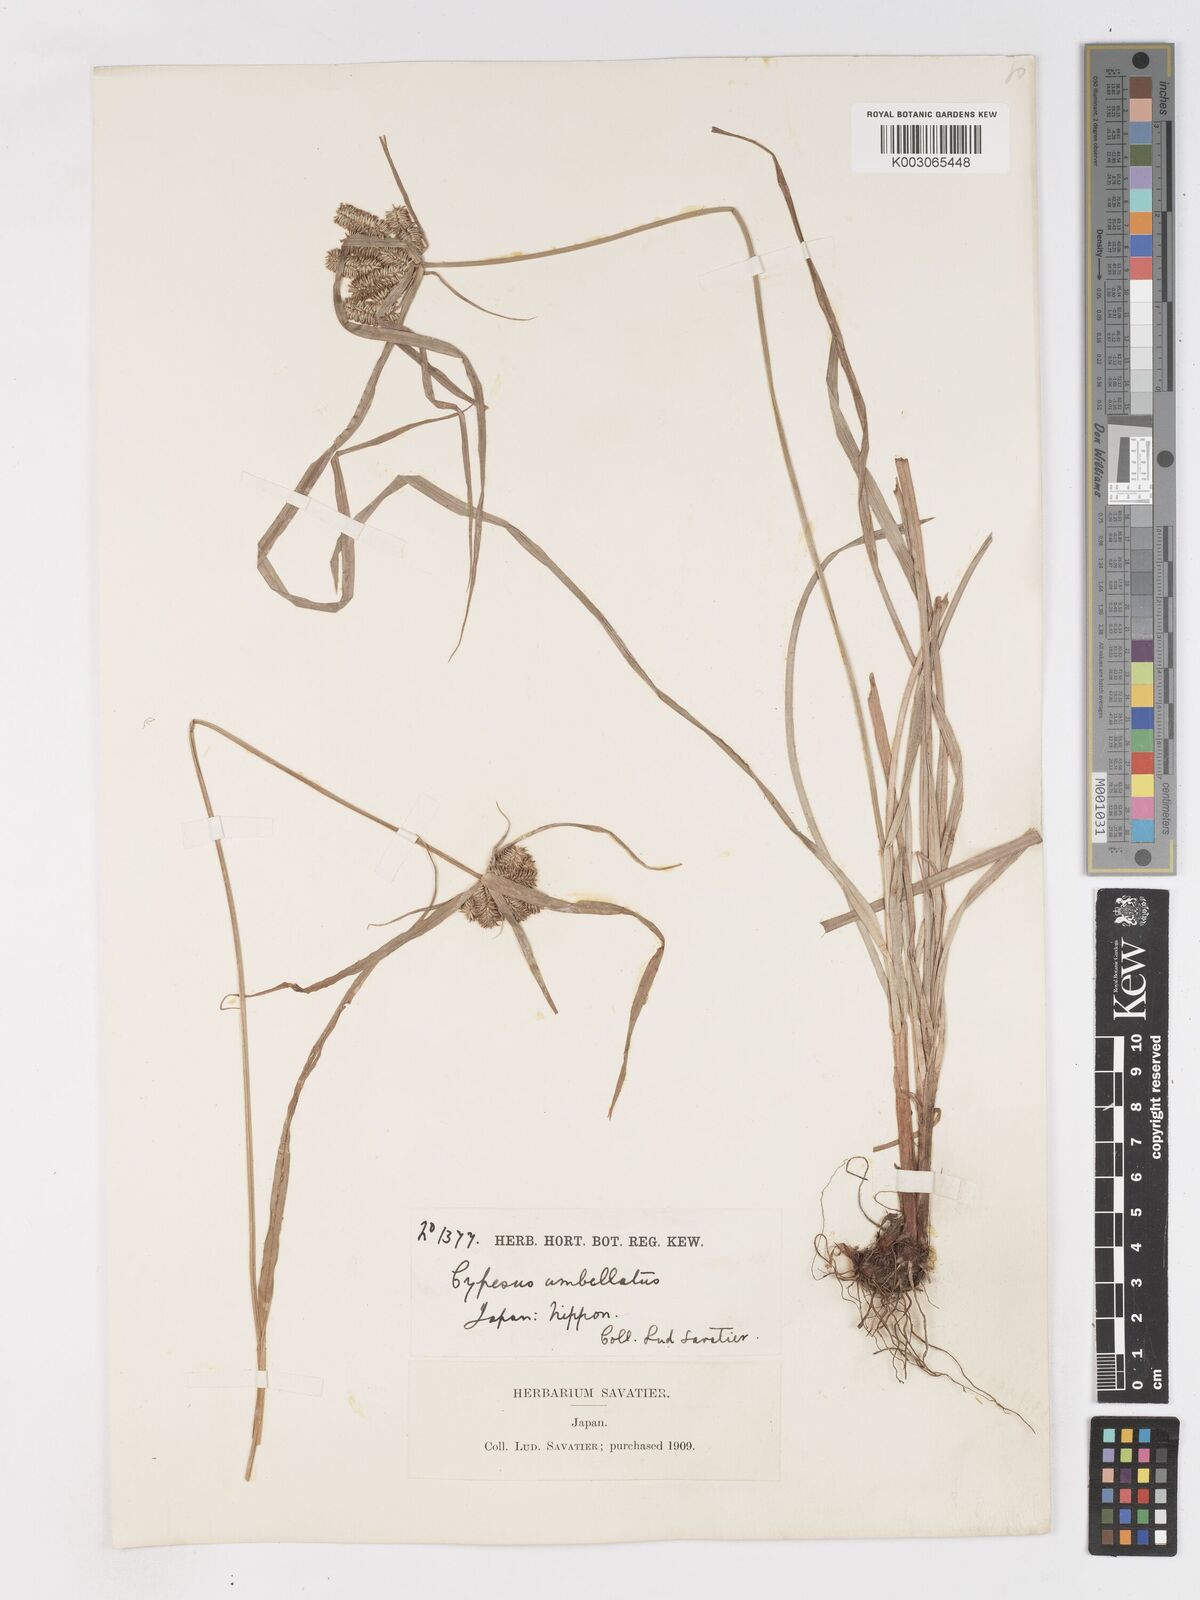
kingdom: Plantae
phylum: Tracheophyta
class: Liliopsida
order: Poales
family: Cyperaceae
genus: Cyperus
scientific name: Cyperus cyperinus
